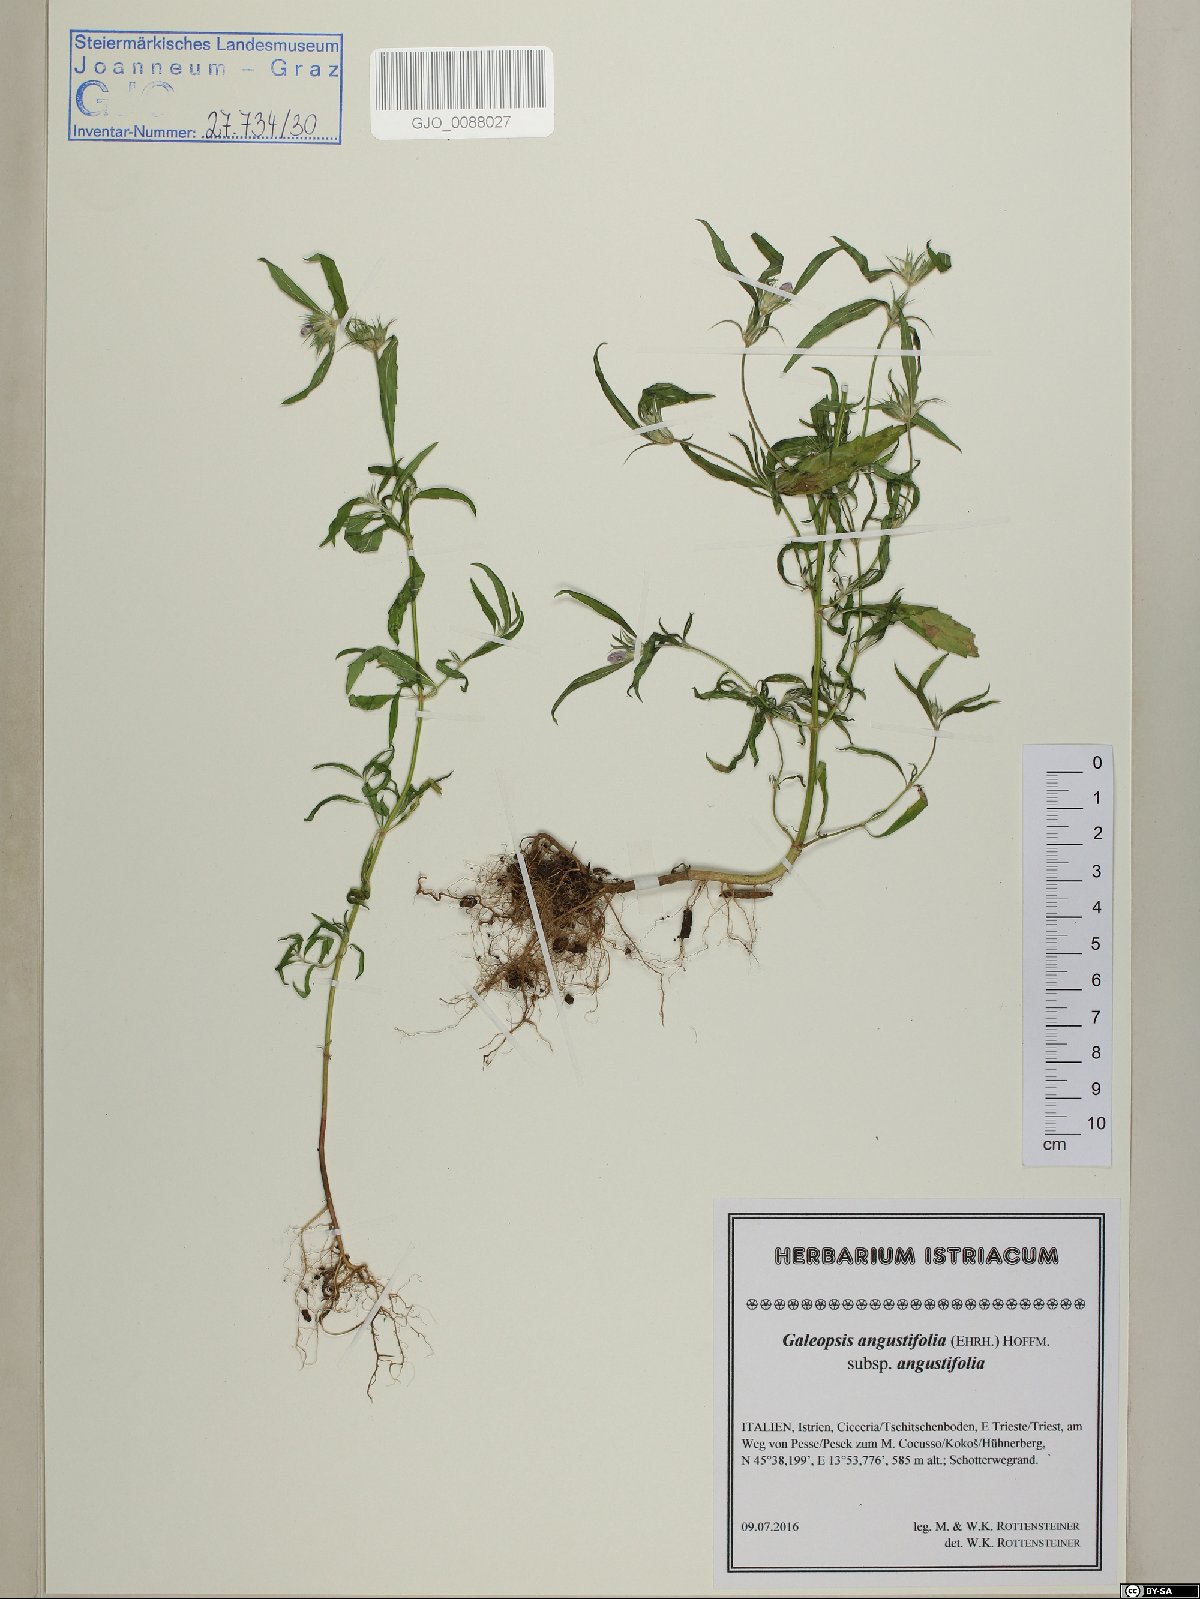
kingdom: Plantae
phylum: Tracheophyta
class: Magnoliopsida
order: Lamiales
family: Lamiaceae
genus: Galeopsis
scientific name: Galeopsis angustifolia
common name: Red hemp-nettle
